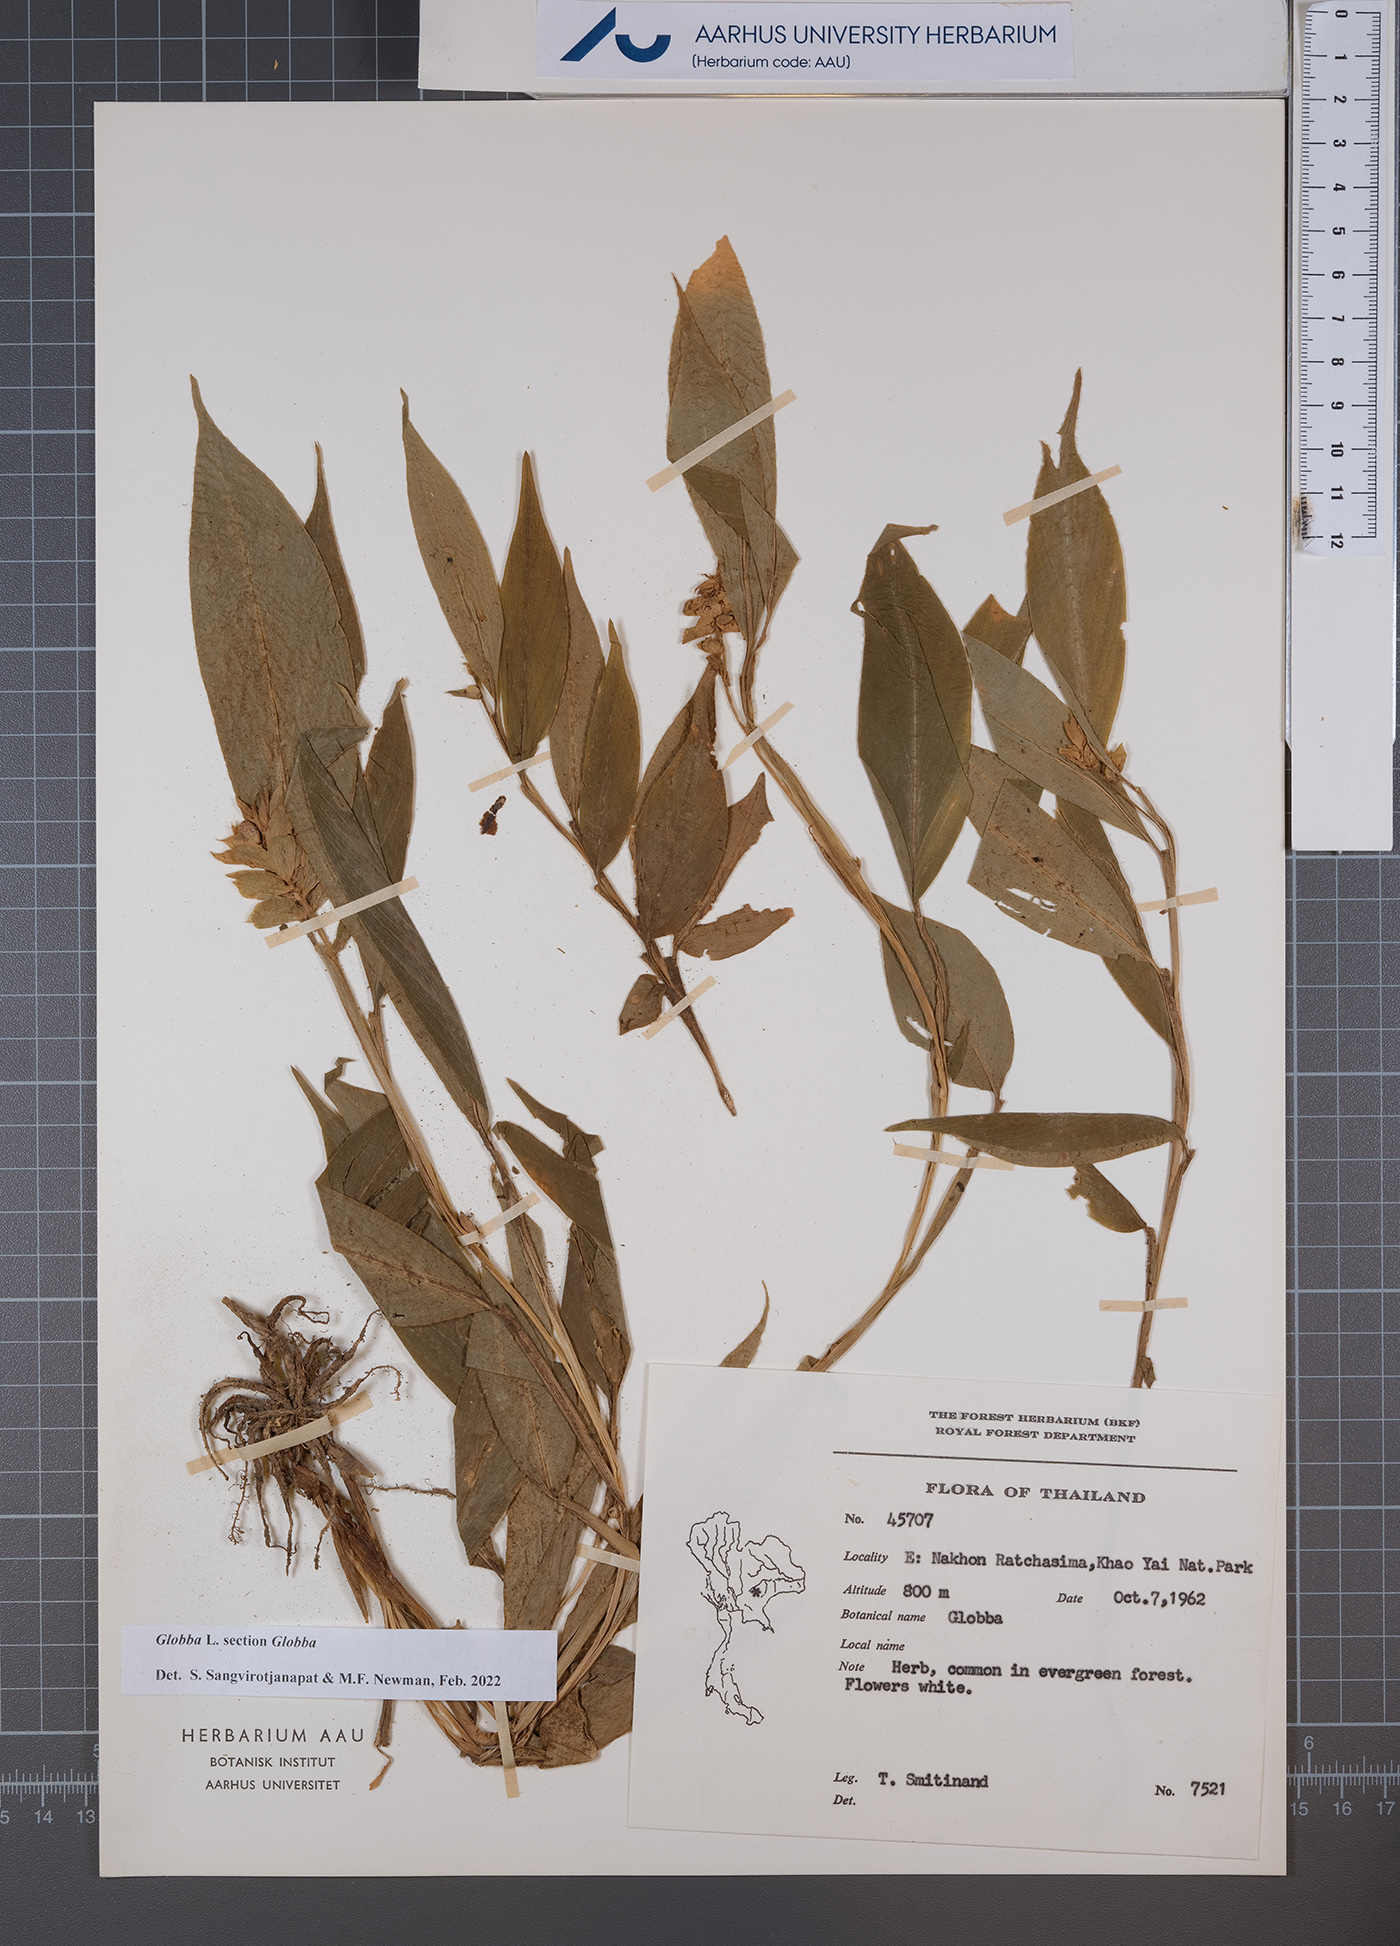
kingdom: Plantae
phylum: Tracheophyta
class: Liliopsida
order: Zingiberales
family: Zingiberaceae
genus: Globba
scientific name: Globba
